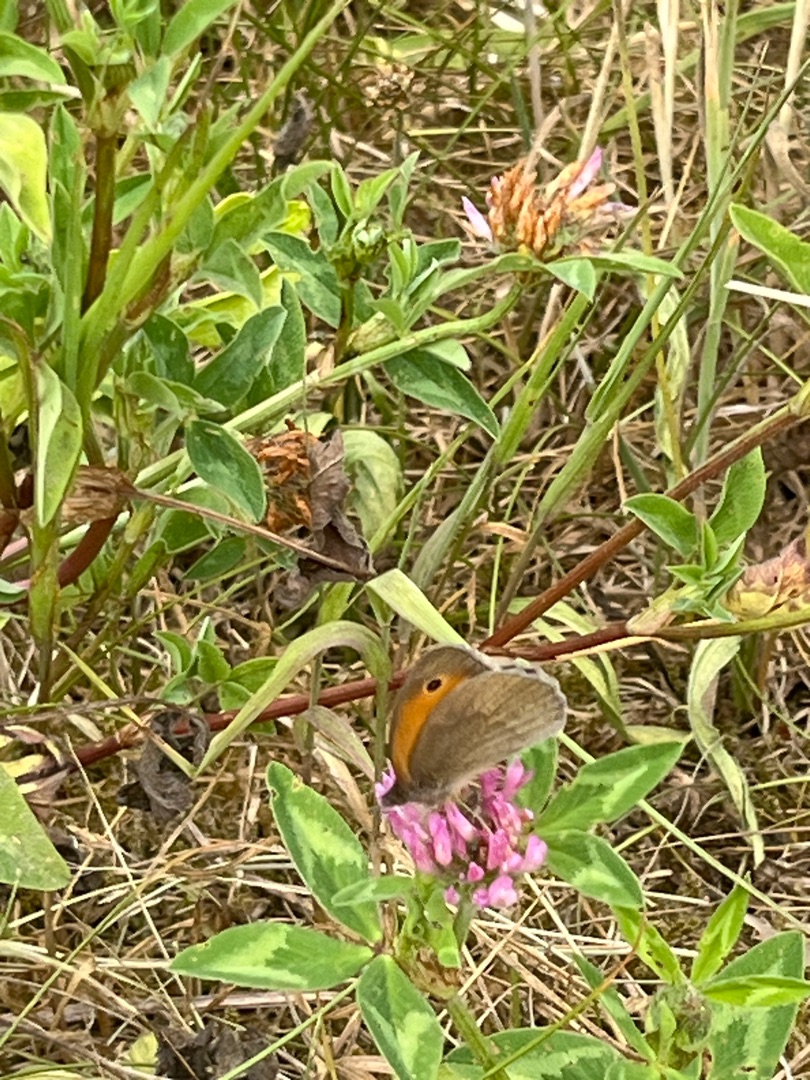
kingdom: Animalia
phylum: Arthropoda
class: Insecta
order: Lepidoptera
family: Nymphalidae
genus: Maniola
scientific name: Maniola jurtina
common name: Græsrandøje
